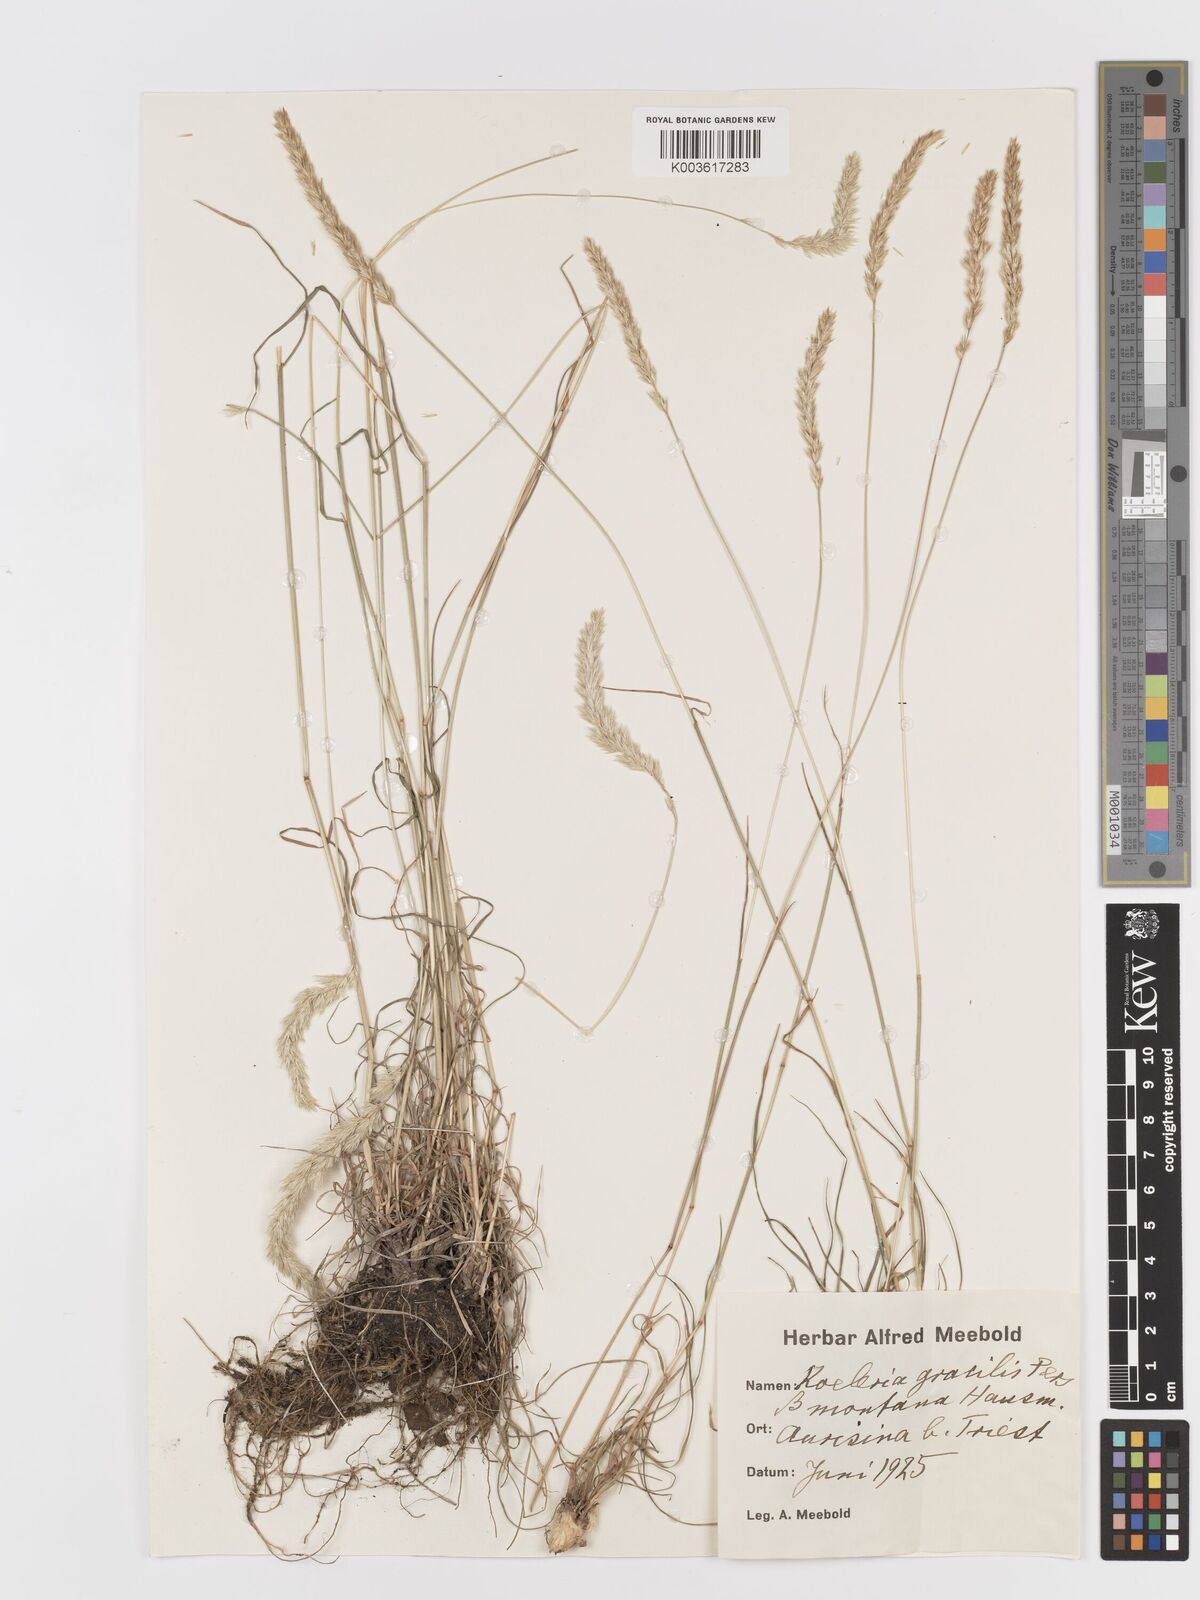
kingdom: Plantae
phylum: Tracheophyta
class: Liliopsida
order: Poales
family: Poaceae
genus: Koeleria
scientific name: Koeleria macrantha
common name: Crested hair-grass
